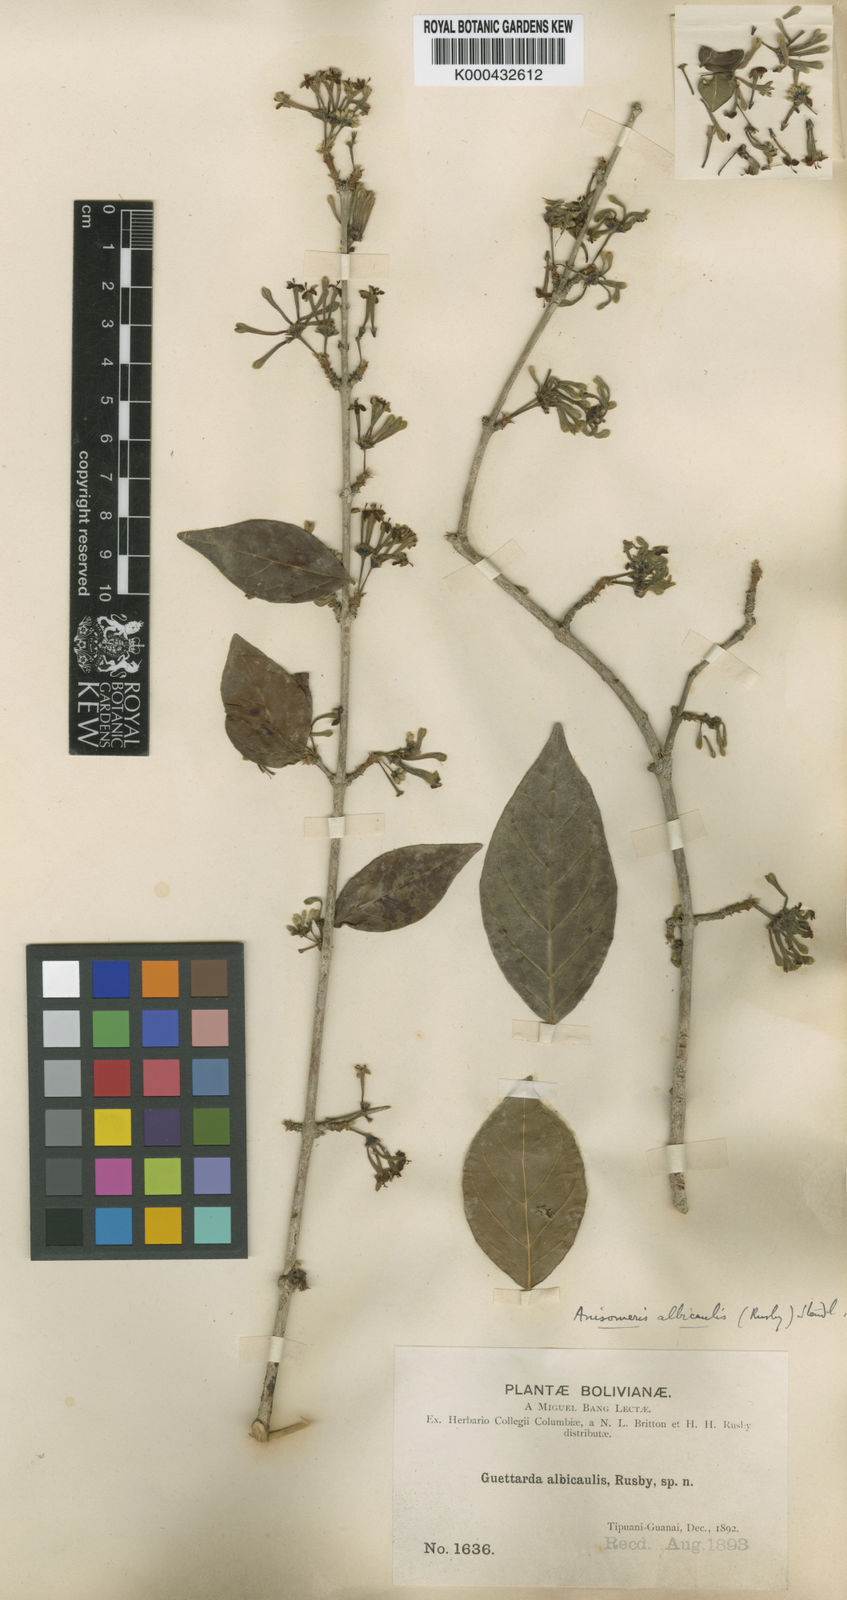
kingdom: Plantae
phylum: Tracheophyta
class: Magnoliopsida
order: Gentianales
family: Rubiaceae
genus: Chomelia
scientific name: Chomelia albicaulis
